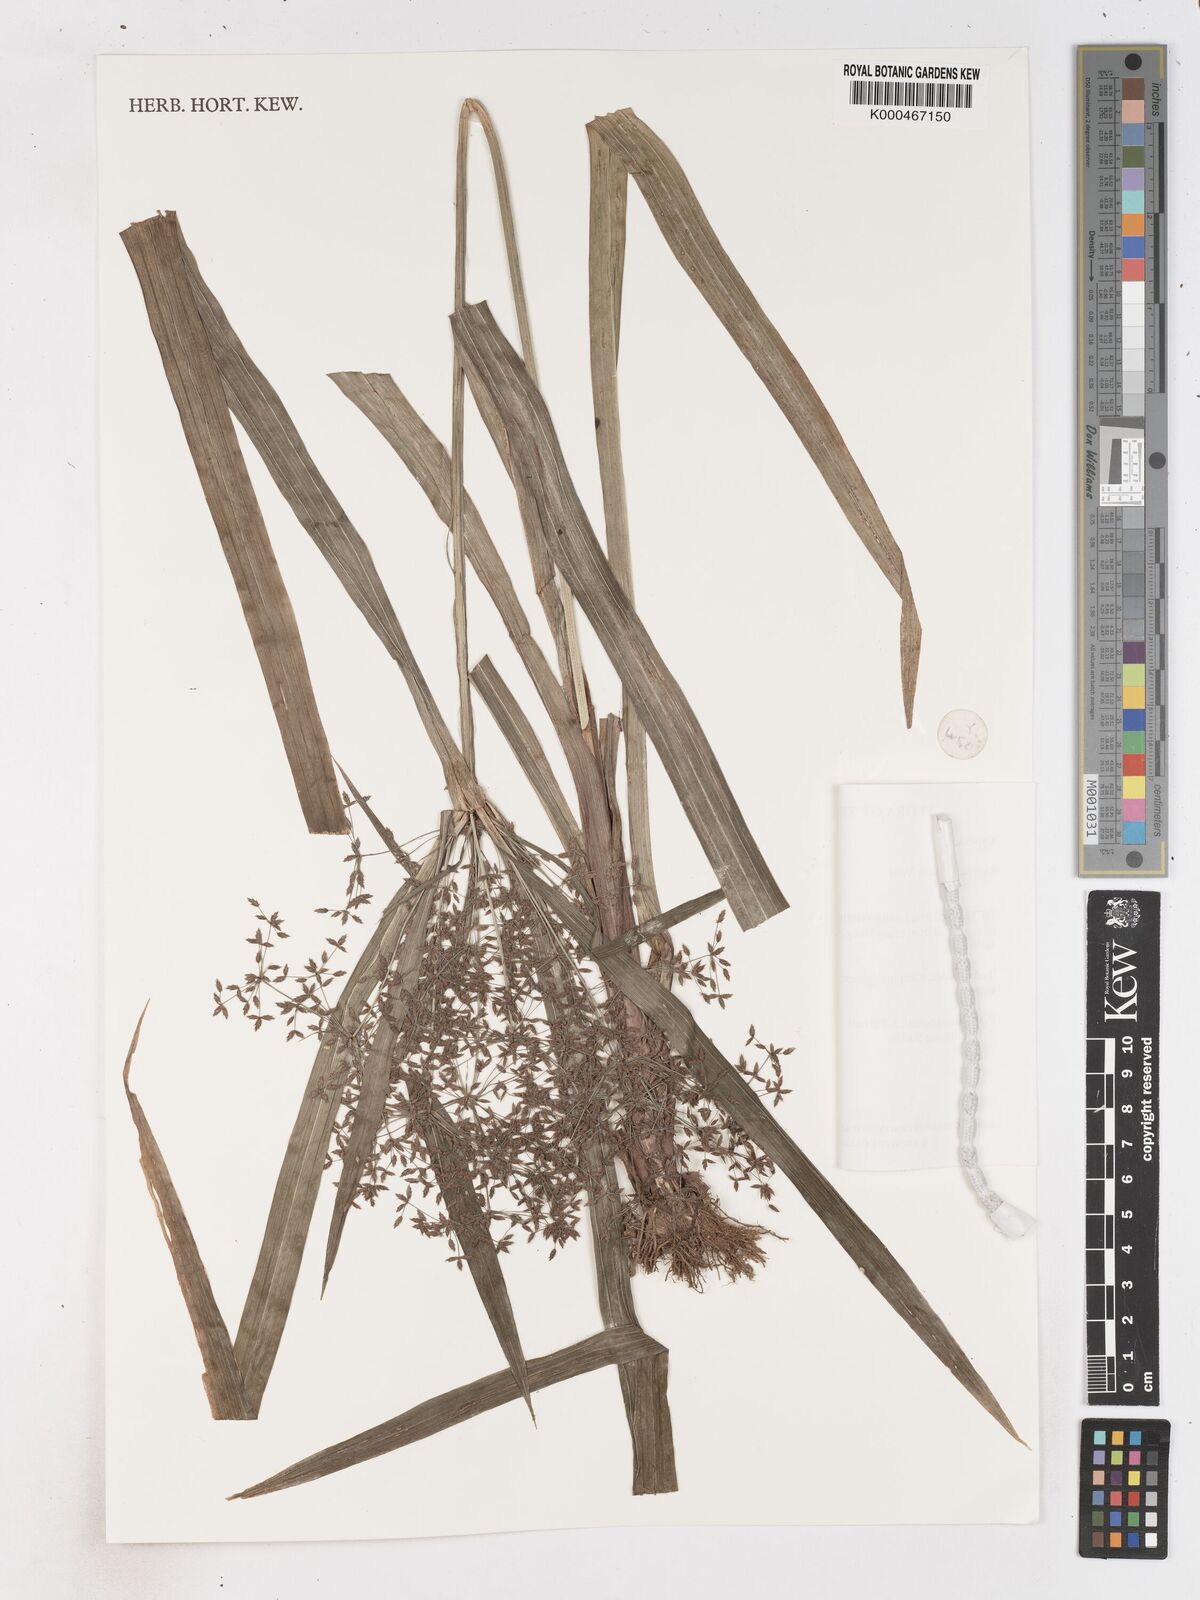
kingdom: Plantae
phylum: Tracheophyta
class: Liliopsida
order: Poales
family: Cyperaceae
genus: Cyperus
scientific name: Cyperus diffusus
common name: Dwarf umbrella grass
